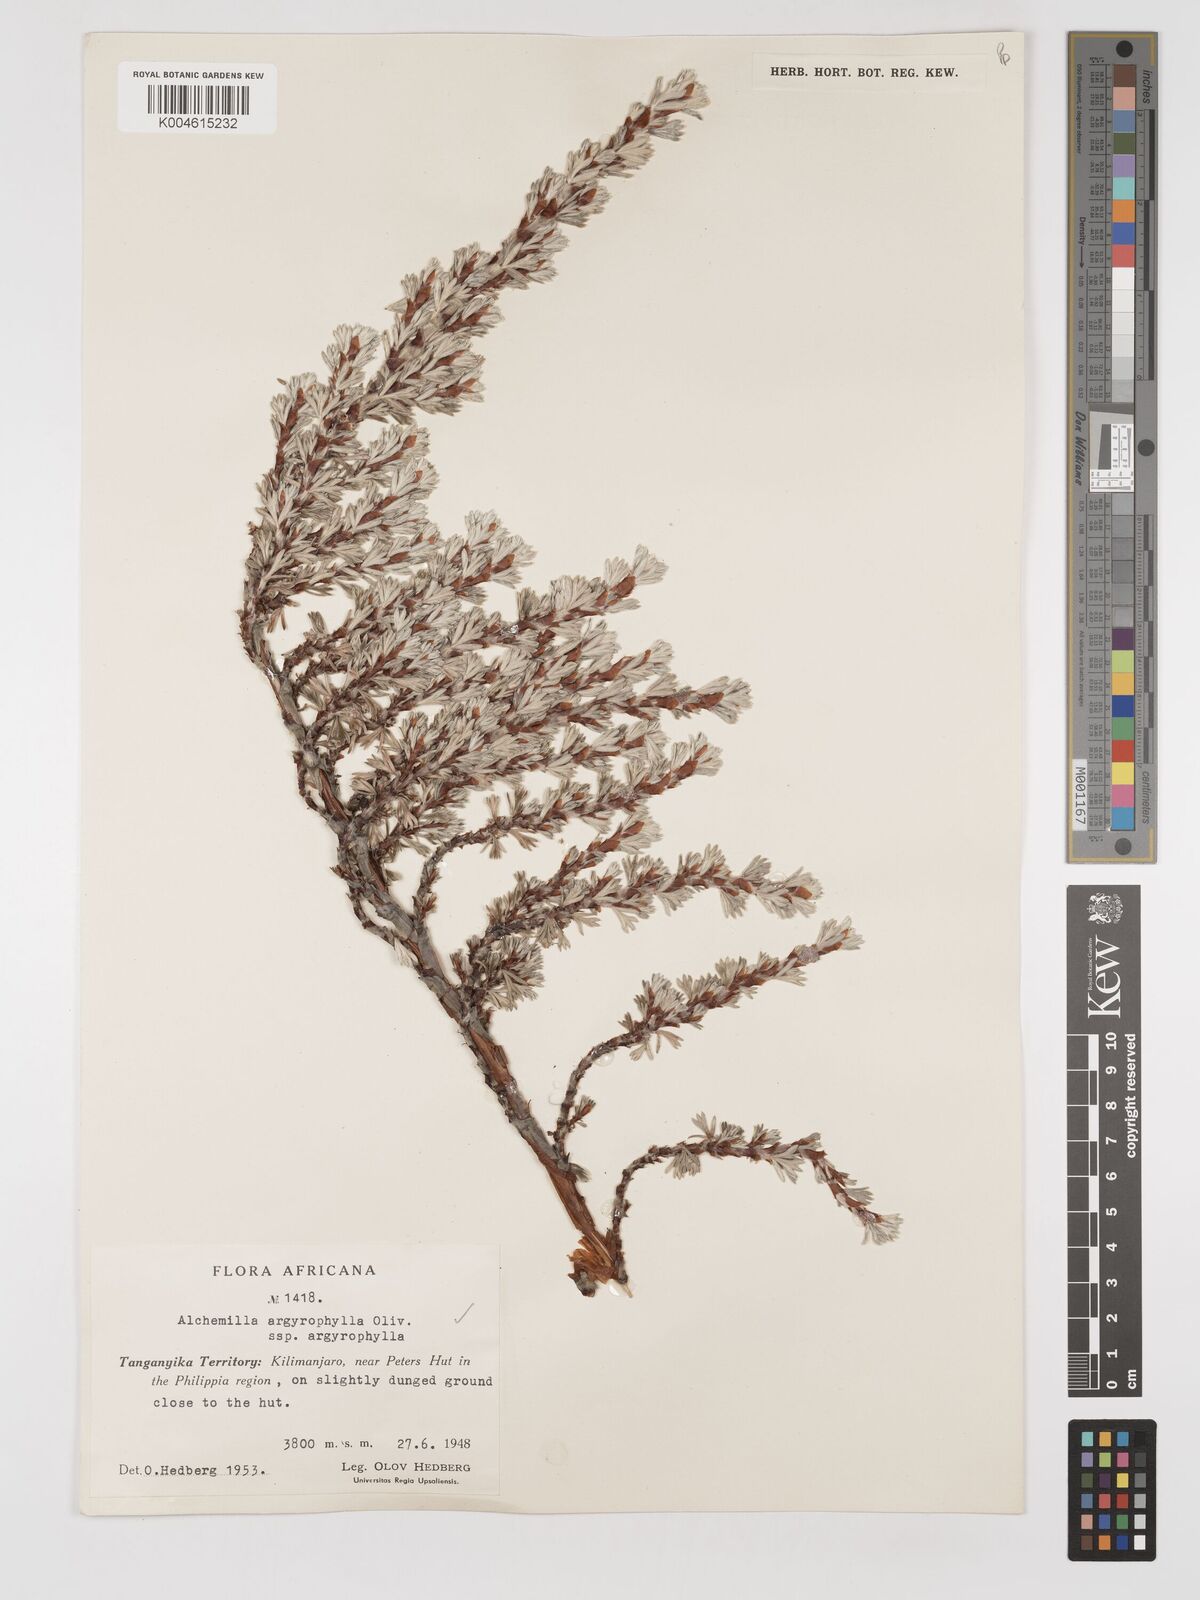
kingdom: Plantae
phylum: Tracheophyta
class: Magnoliopsida
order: Rosales
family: Rosaceae
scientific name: Rosaceae
